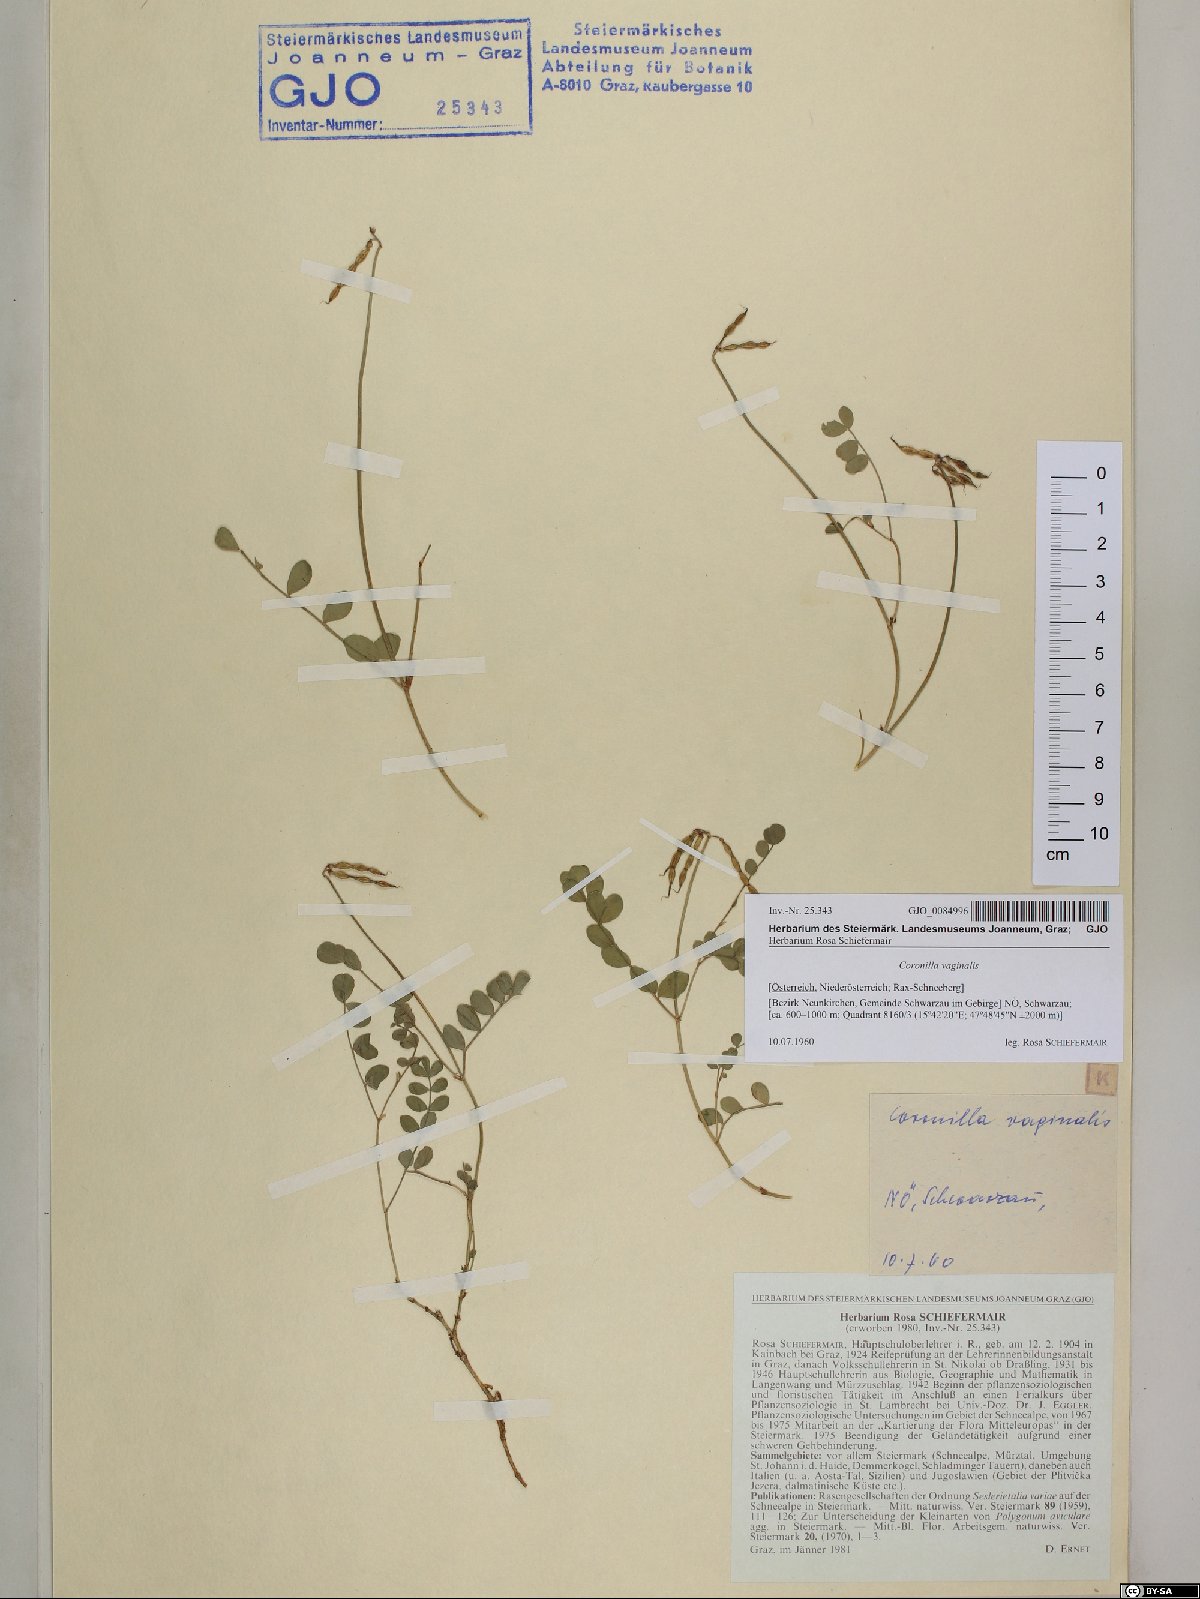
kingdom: Plantae
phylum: Tracheophyta
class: Magnoliopsida
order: Fabales
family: Fabaceae
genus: Coronilla
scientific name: Coronilla vaginalis
